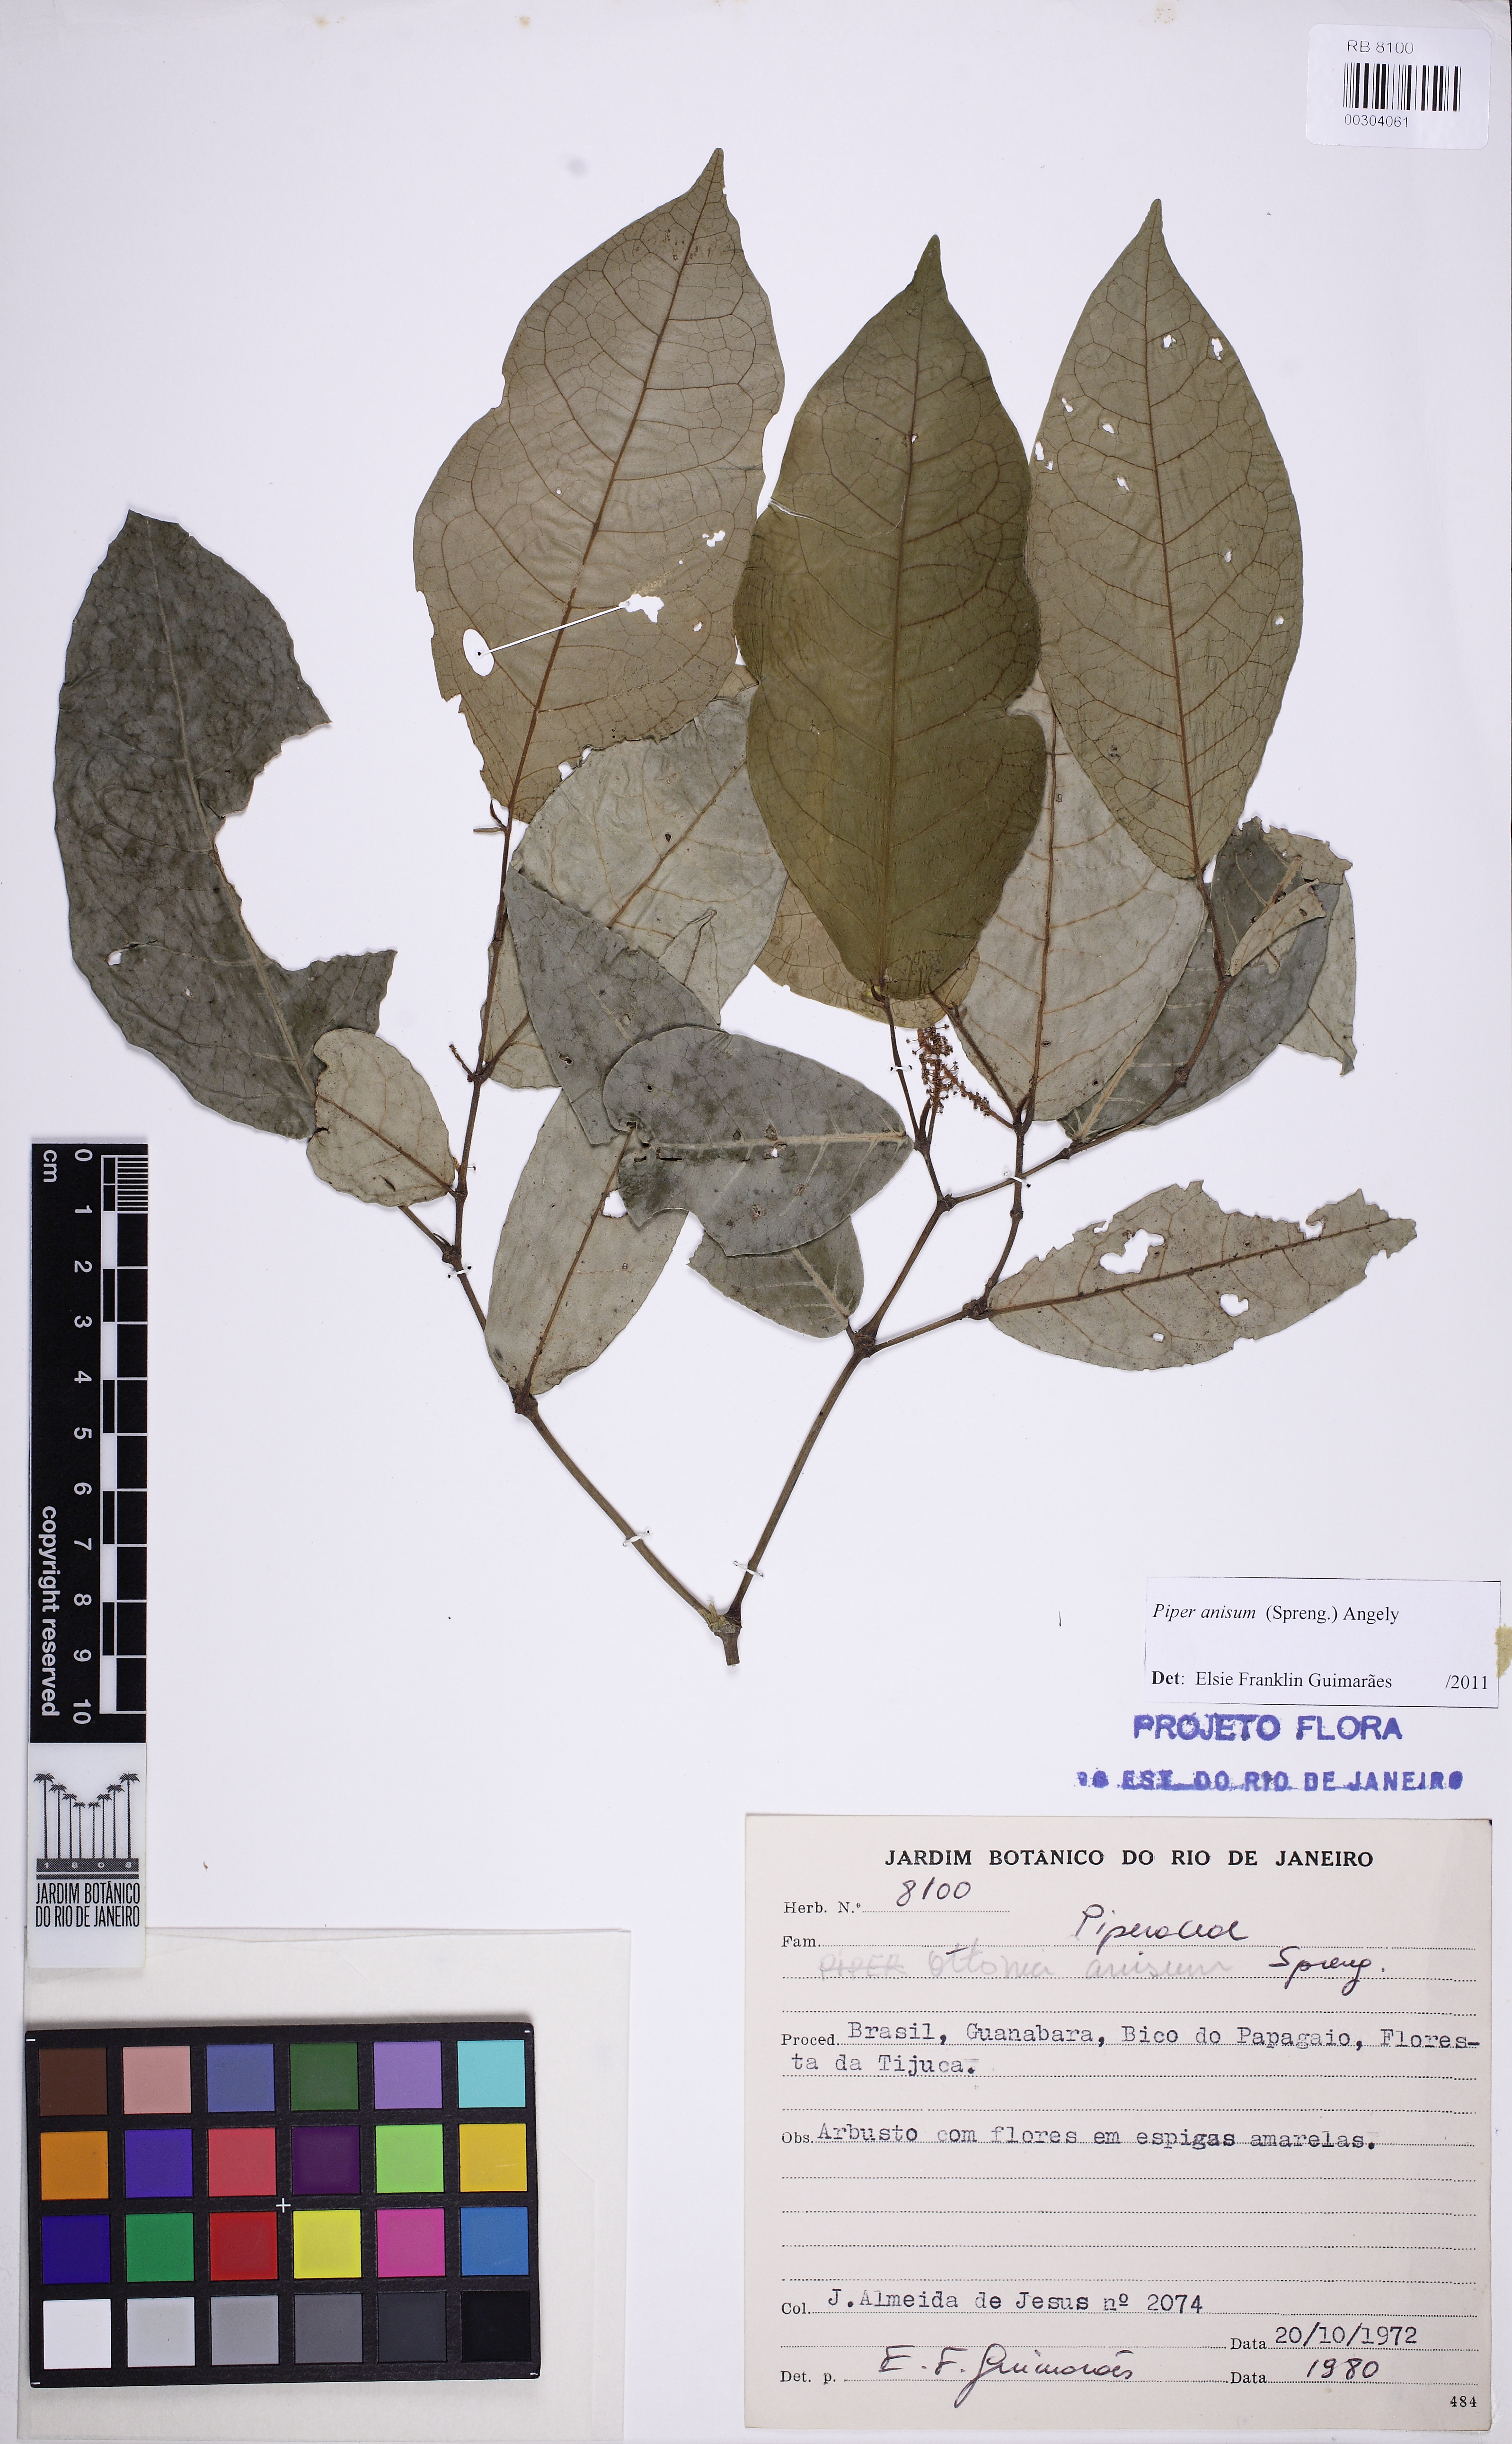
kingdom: Plantae
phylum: Tracheophyta
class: Magnoliopsida
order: Piperales
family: Piperaceae
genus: Piper
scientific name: Piper anisum
